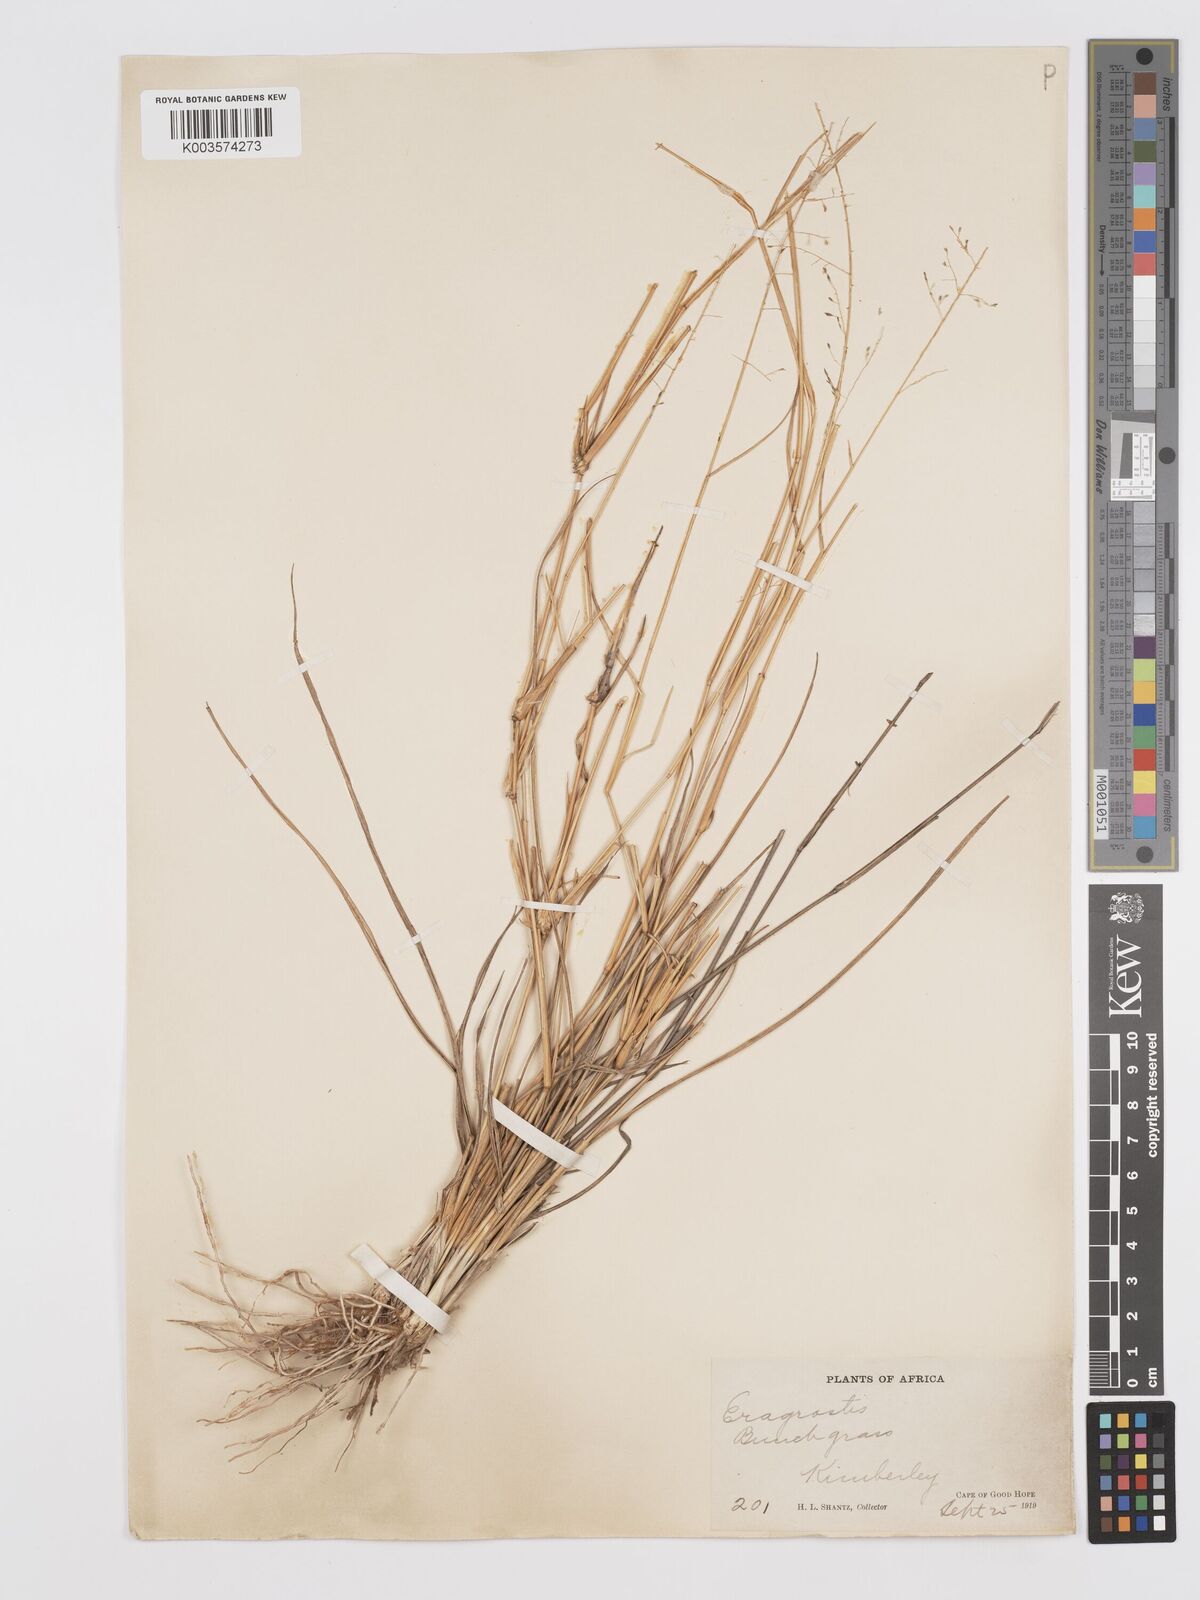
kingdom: Plantae
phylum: Tracheophyta
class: Liliopsida
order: Poales
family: Poaceae
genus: Eragrostis
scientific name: Eragrostis micrantha
